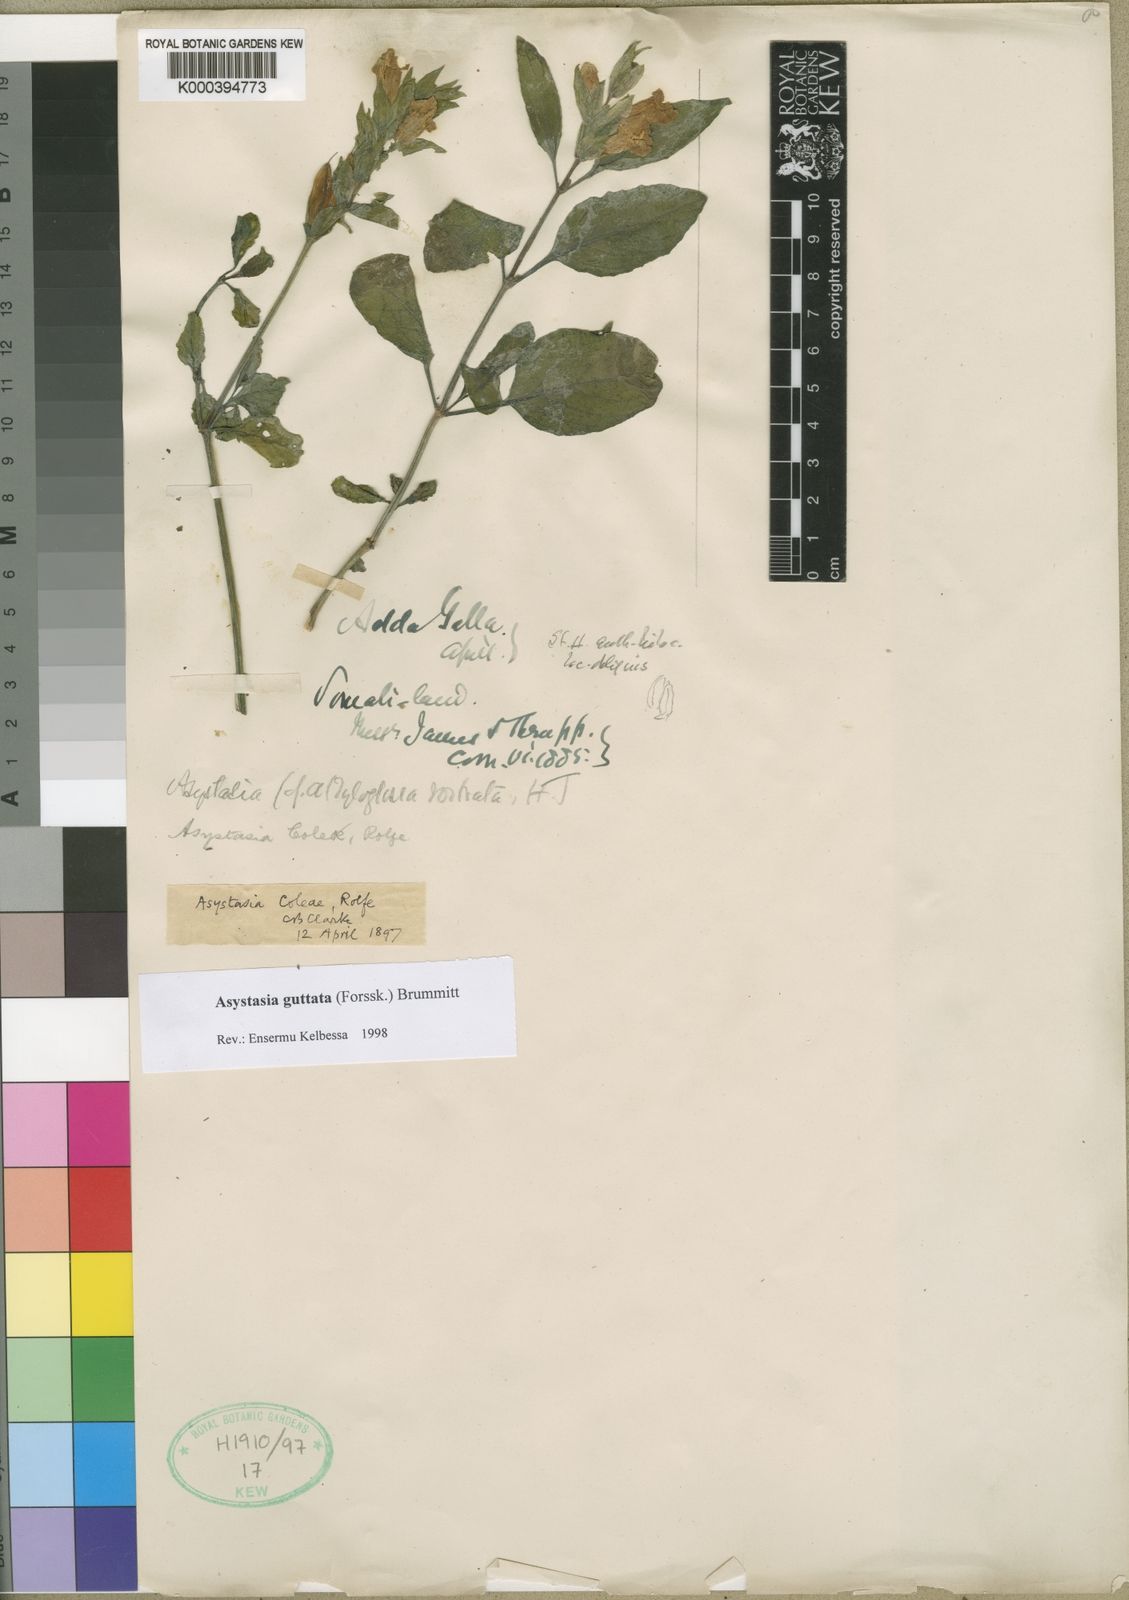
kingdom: Plantae
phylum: Tracheophyta
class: Magnoliopsida
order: Lamiales
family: Acanthaceae
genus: Asystasia
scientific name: Asystasia guttata
